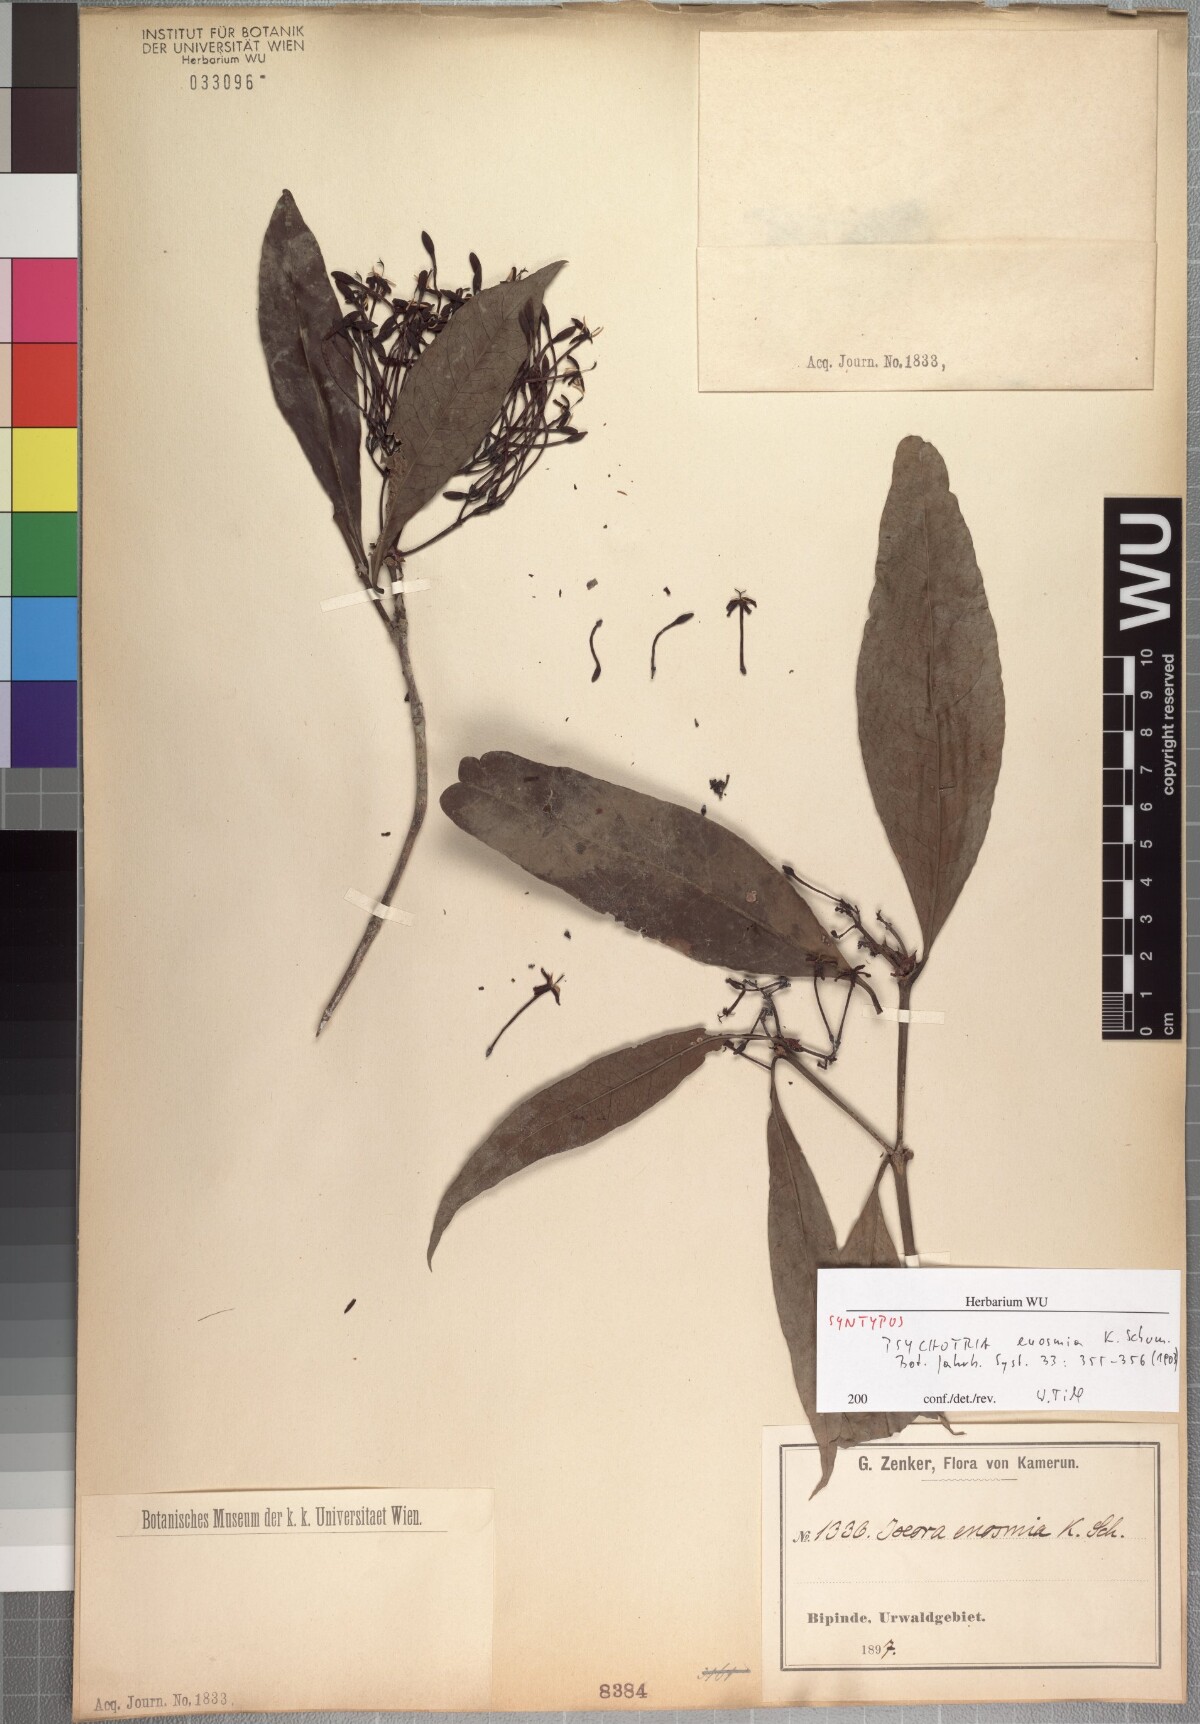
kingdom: Plantae
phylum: Tracheophyta
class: Magnoliopsida
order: Gentianales
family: Rubiaceae
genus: Ixora
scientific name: Ixora euosmia
